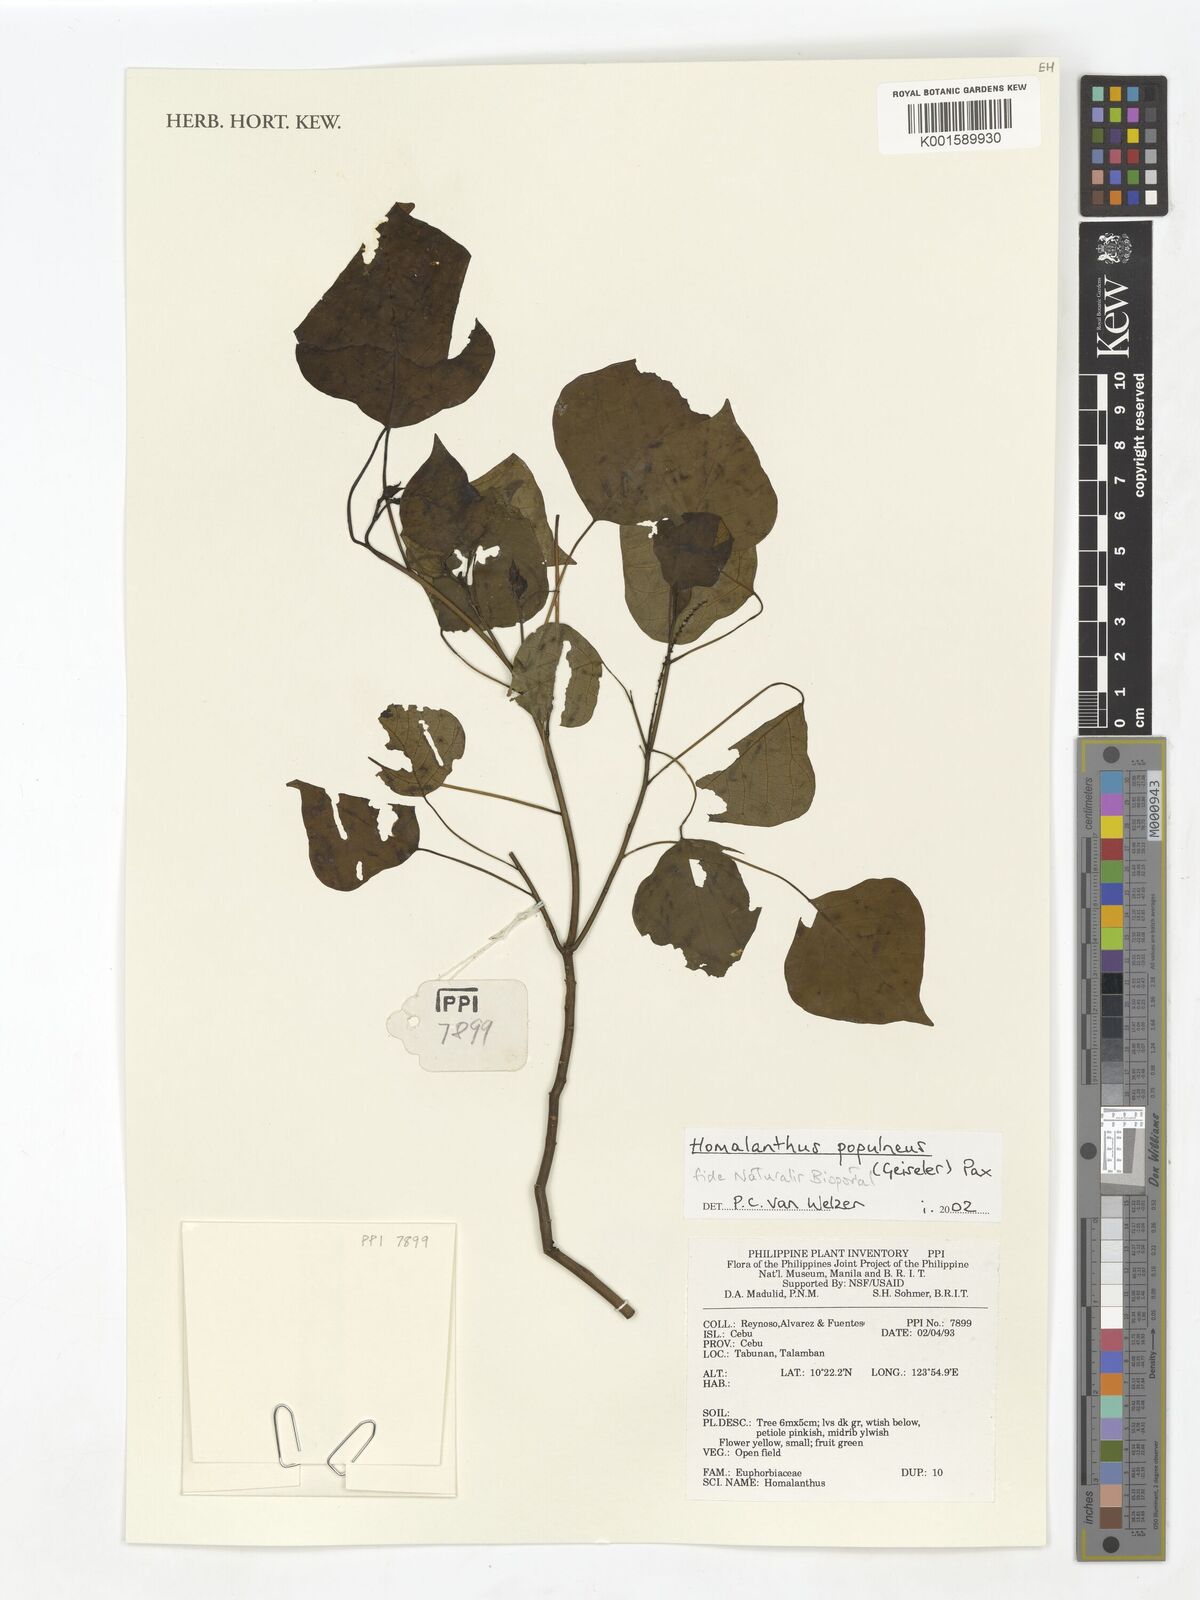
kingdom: Plantae
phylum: Tracheophyta
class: Magnoliopsida
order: Malpighiales
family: Euphorbiaceae
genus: Homalanthus
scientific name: Homalanthus populneus
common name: Spurge
